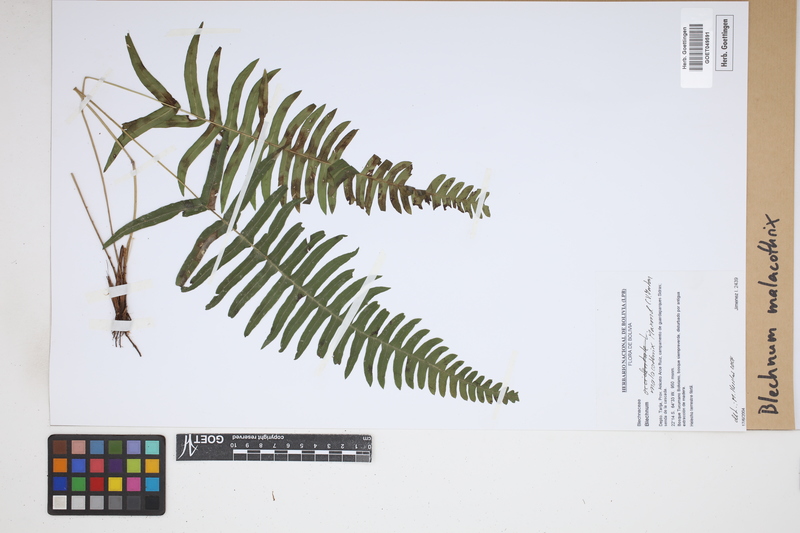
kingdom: Plantae
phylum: Tracheophyta
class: Polypodiopsida
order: Polypodiales
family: Blechnaceae
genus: Blechnum
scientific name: Blechnum malacothrix
